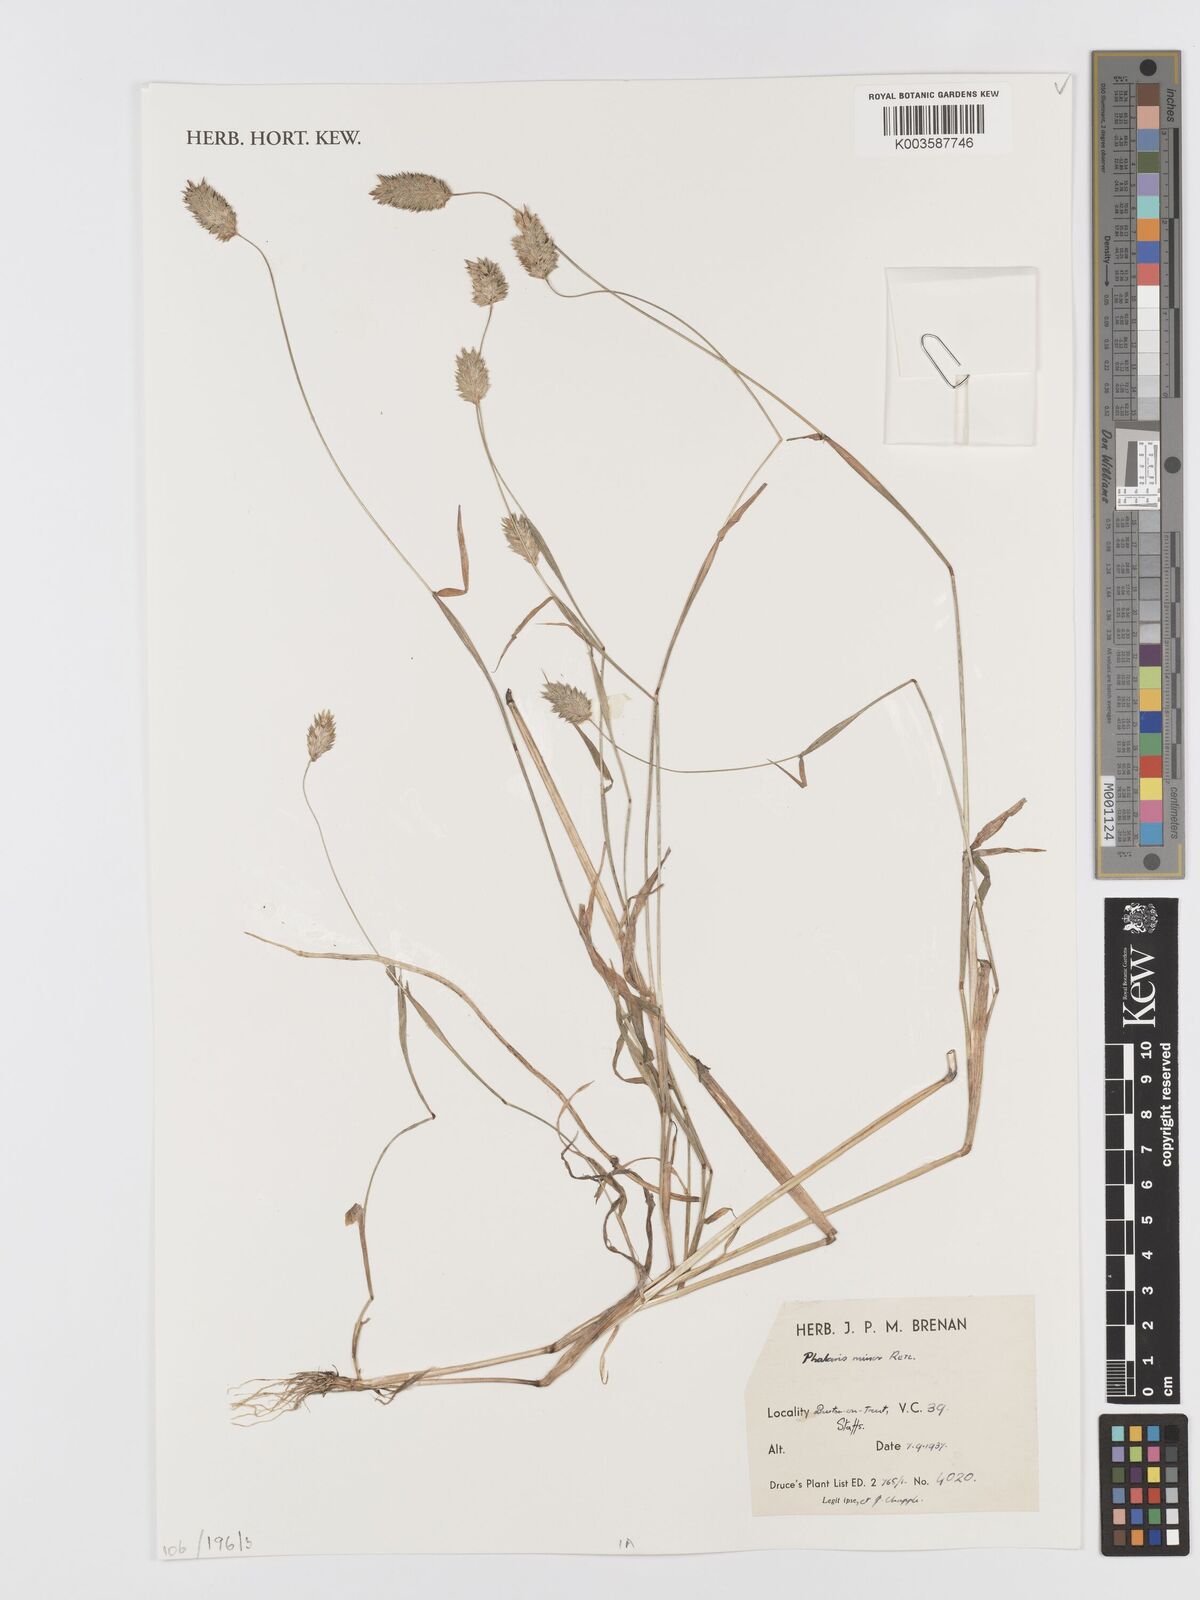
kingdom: Plantae
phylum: Tracheophyta
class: Liliopsida
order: Poales
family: Poaceae
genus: Phalaris
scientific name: Phalaris minor
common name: Littleseed canarygrass
